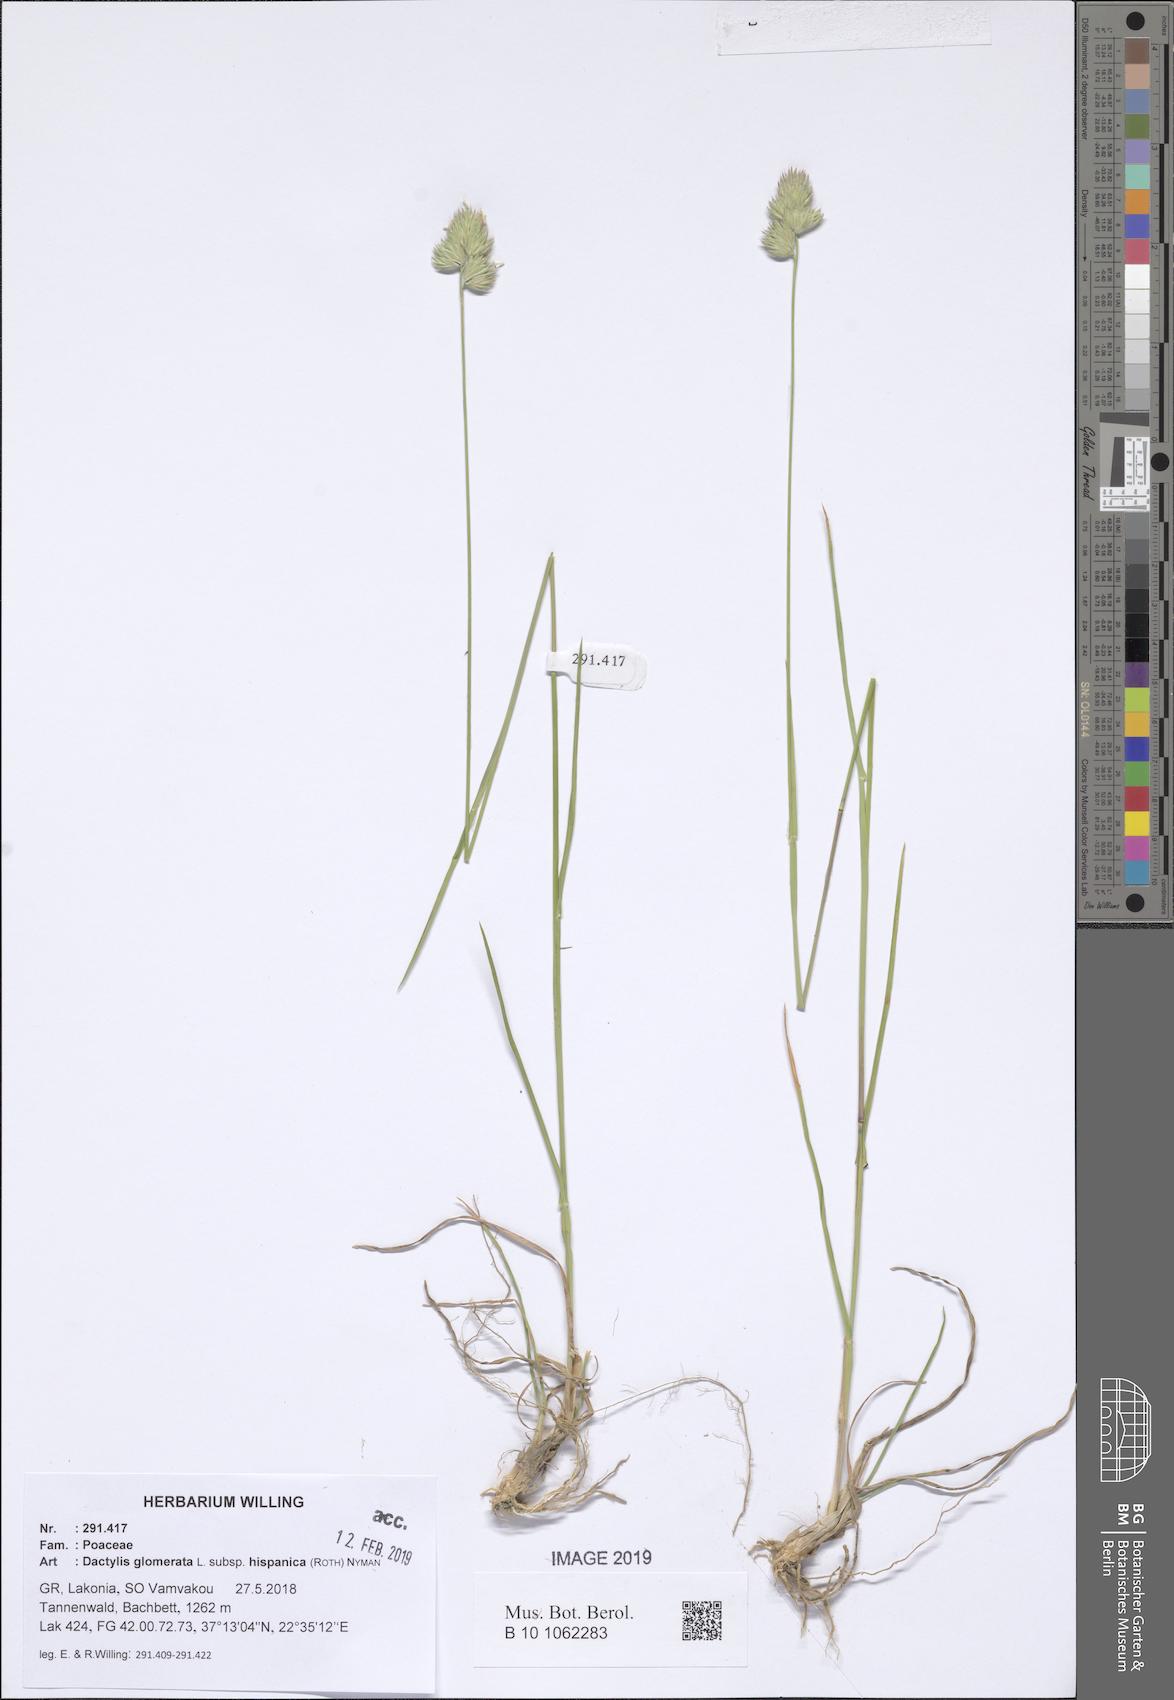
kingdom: Plantae
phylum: Tracheophyta
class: Liliopsida
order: Poales
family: Poaceae
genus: Dactylis
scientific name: Dactylis glomerata
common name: Orchardgrass
